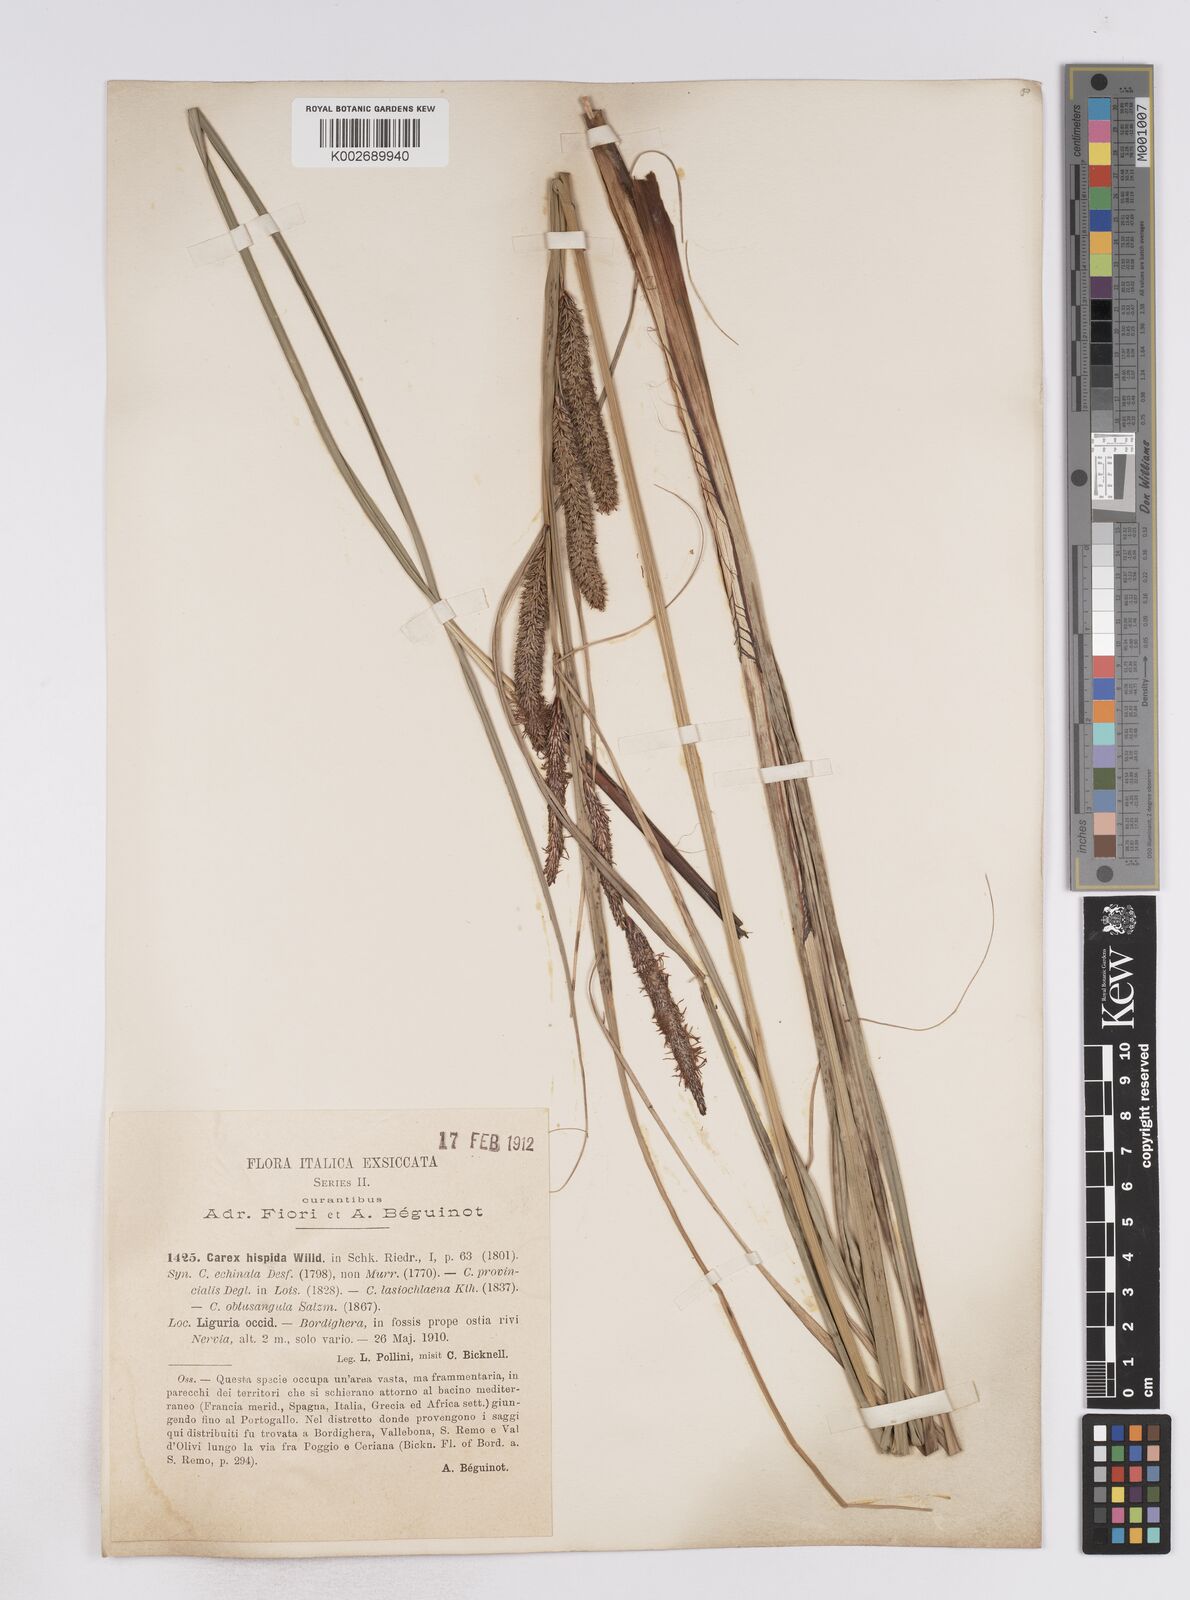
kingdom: Plantae
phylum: Tracheophyta
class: Liliopsida
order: Poales
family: Cyperaceae
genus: Carex
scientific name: Carex hispida
